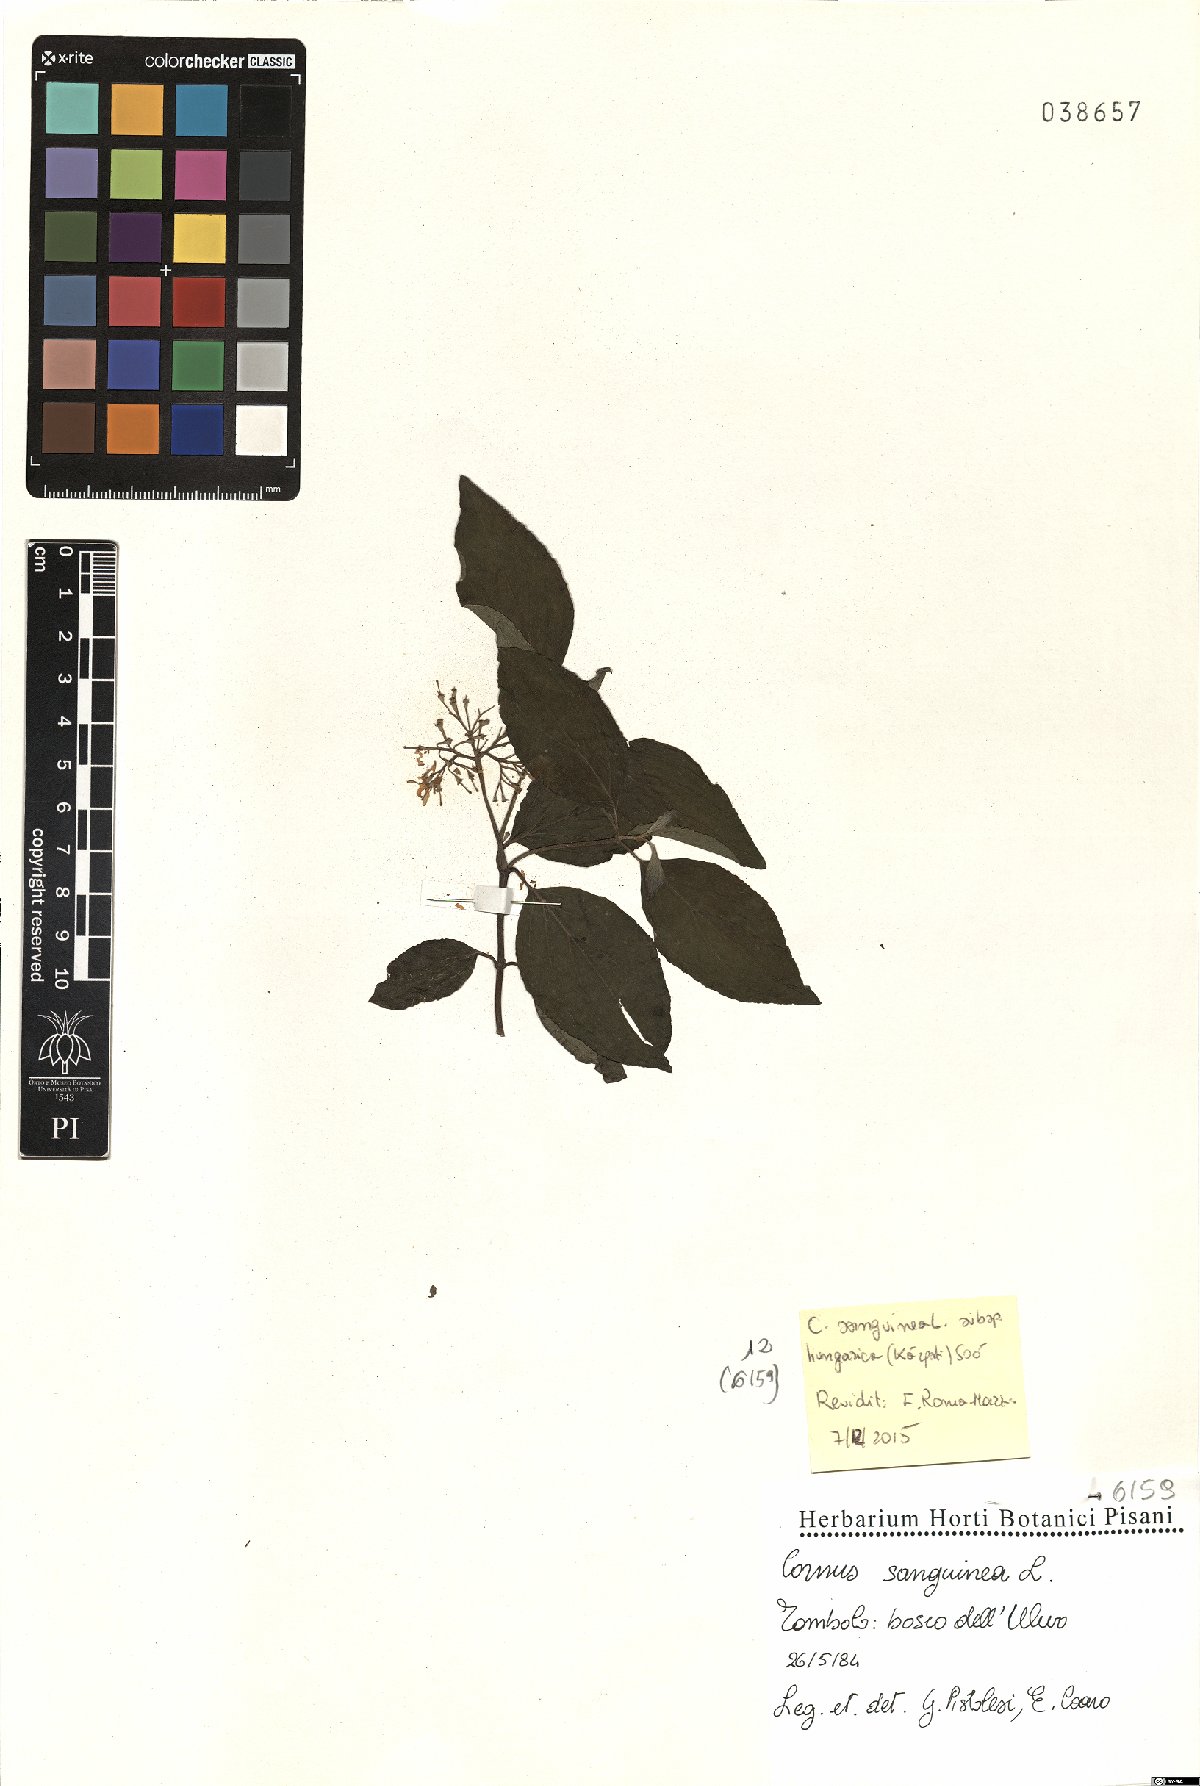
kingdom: Plantae
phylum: Tracheophyta
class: Magnoliopsida
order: Cornales
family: Cornaceae
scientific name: Cornaceae
